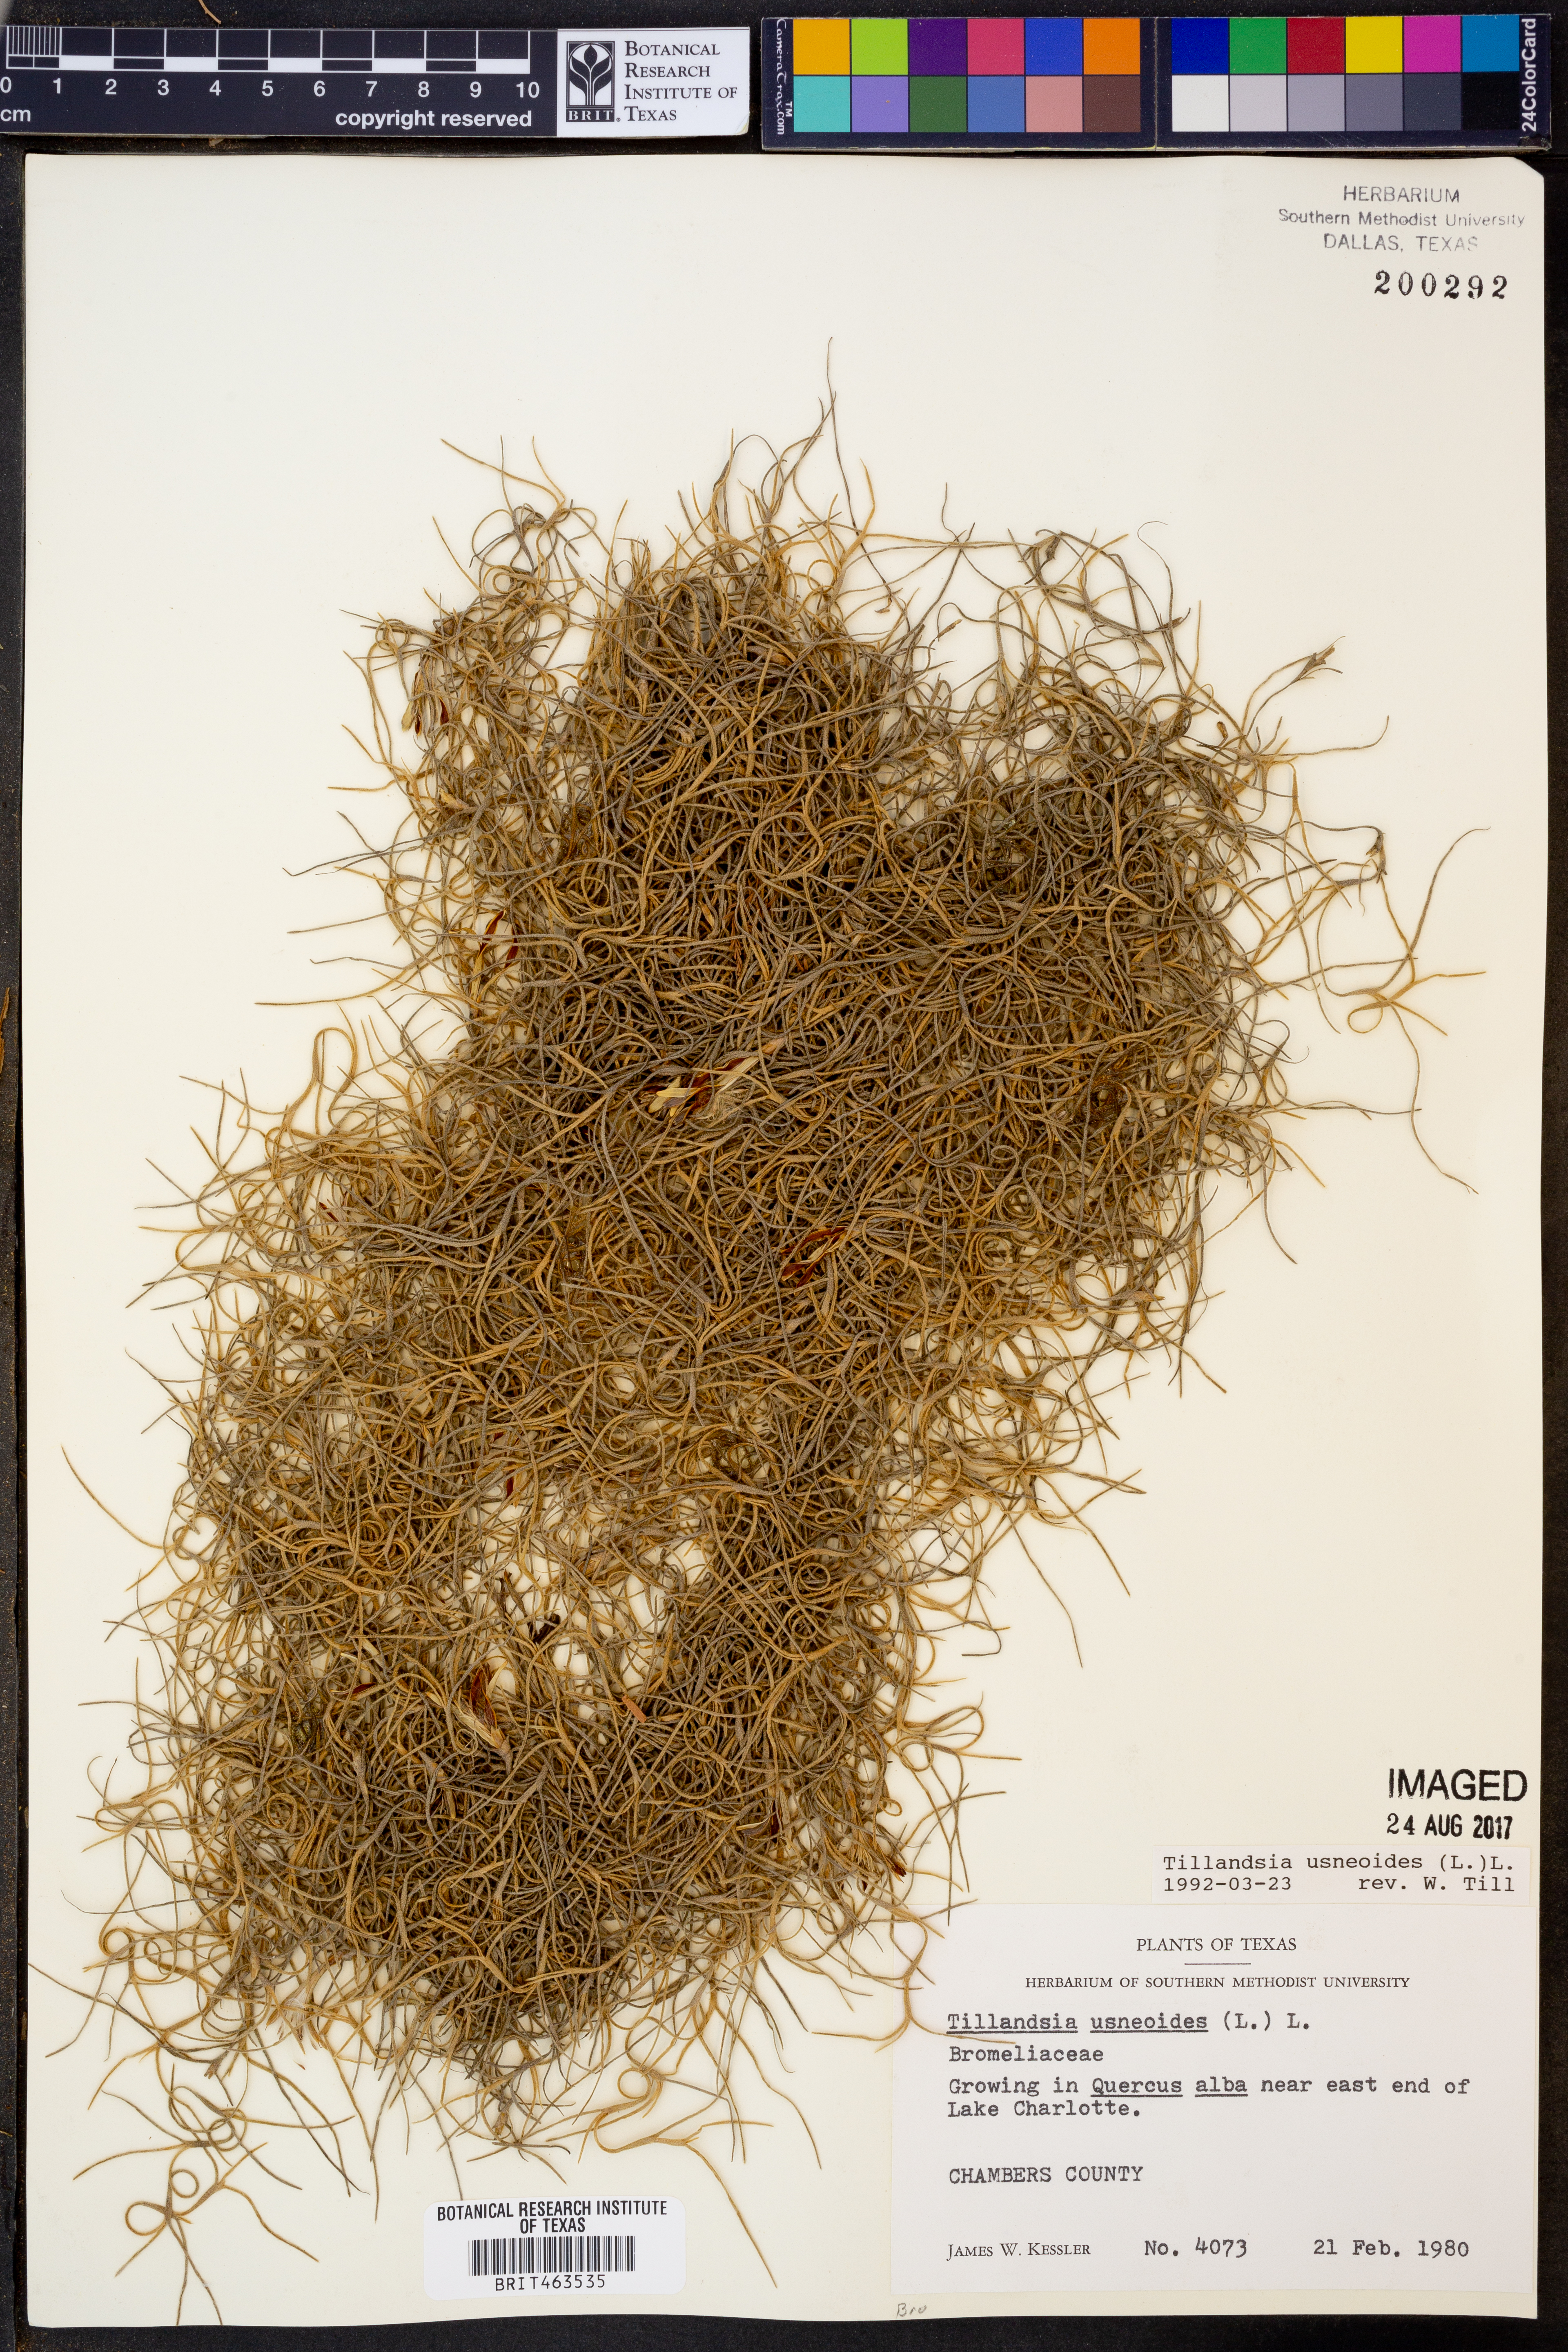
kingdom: Plantae
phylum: Tracheophyta
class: Liliopsida
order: Poales
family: Bromeliaceae
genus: Tillandsia
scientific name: Tillandsia usneoides
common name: Spanish moss
